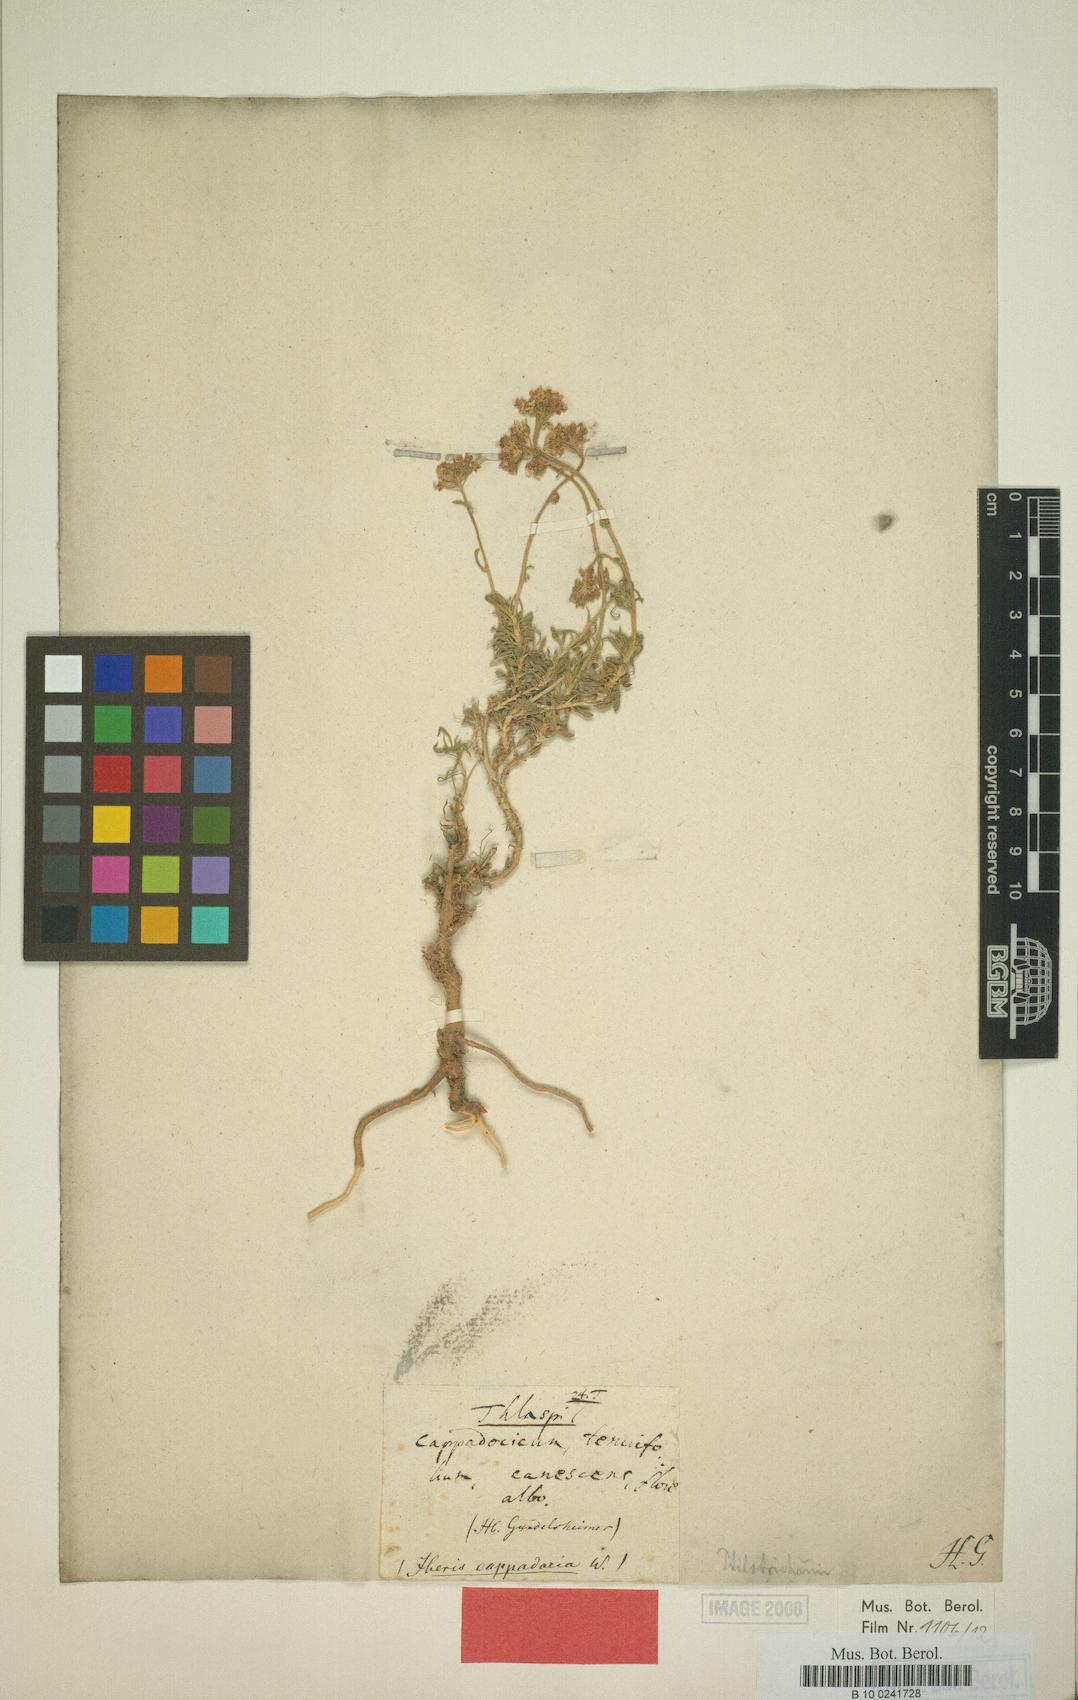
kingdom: Plantae
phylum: Tracheophyta
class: Magnoliopsida
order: Brassicales
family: Brassicaceae
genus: Bornmuellera
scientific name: Bornmuellera cappadocica
